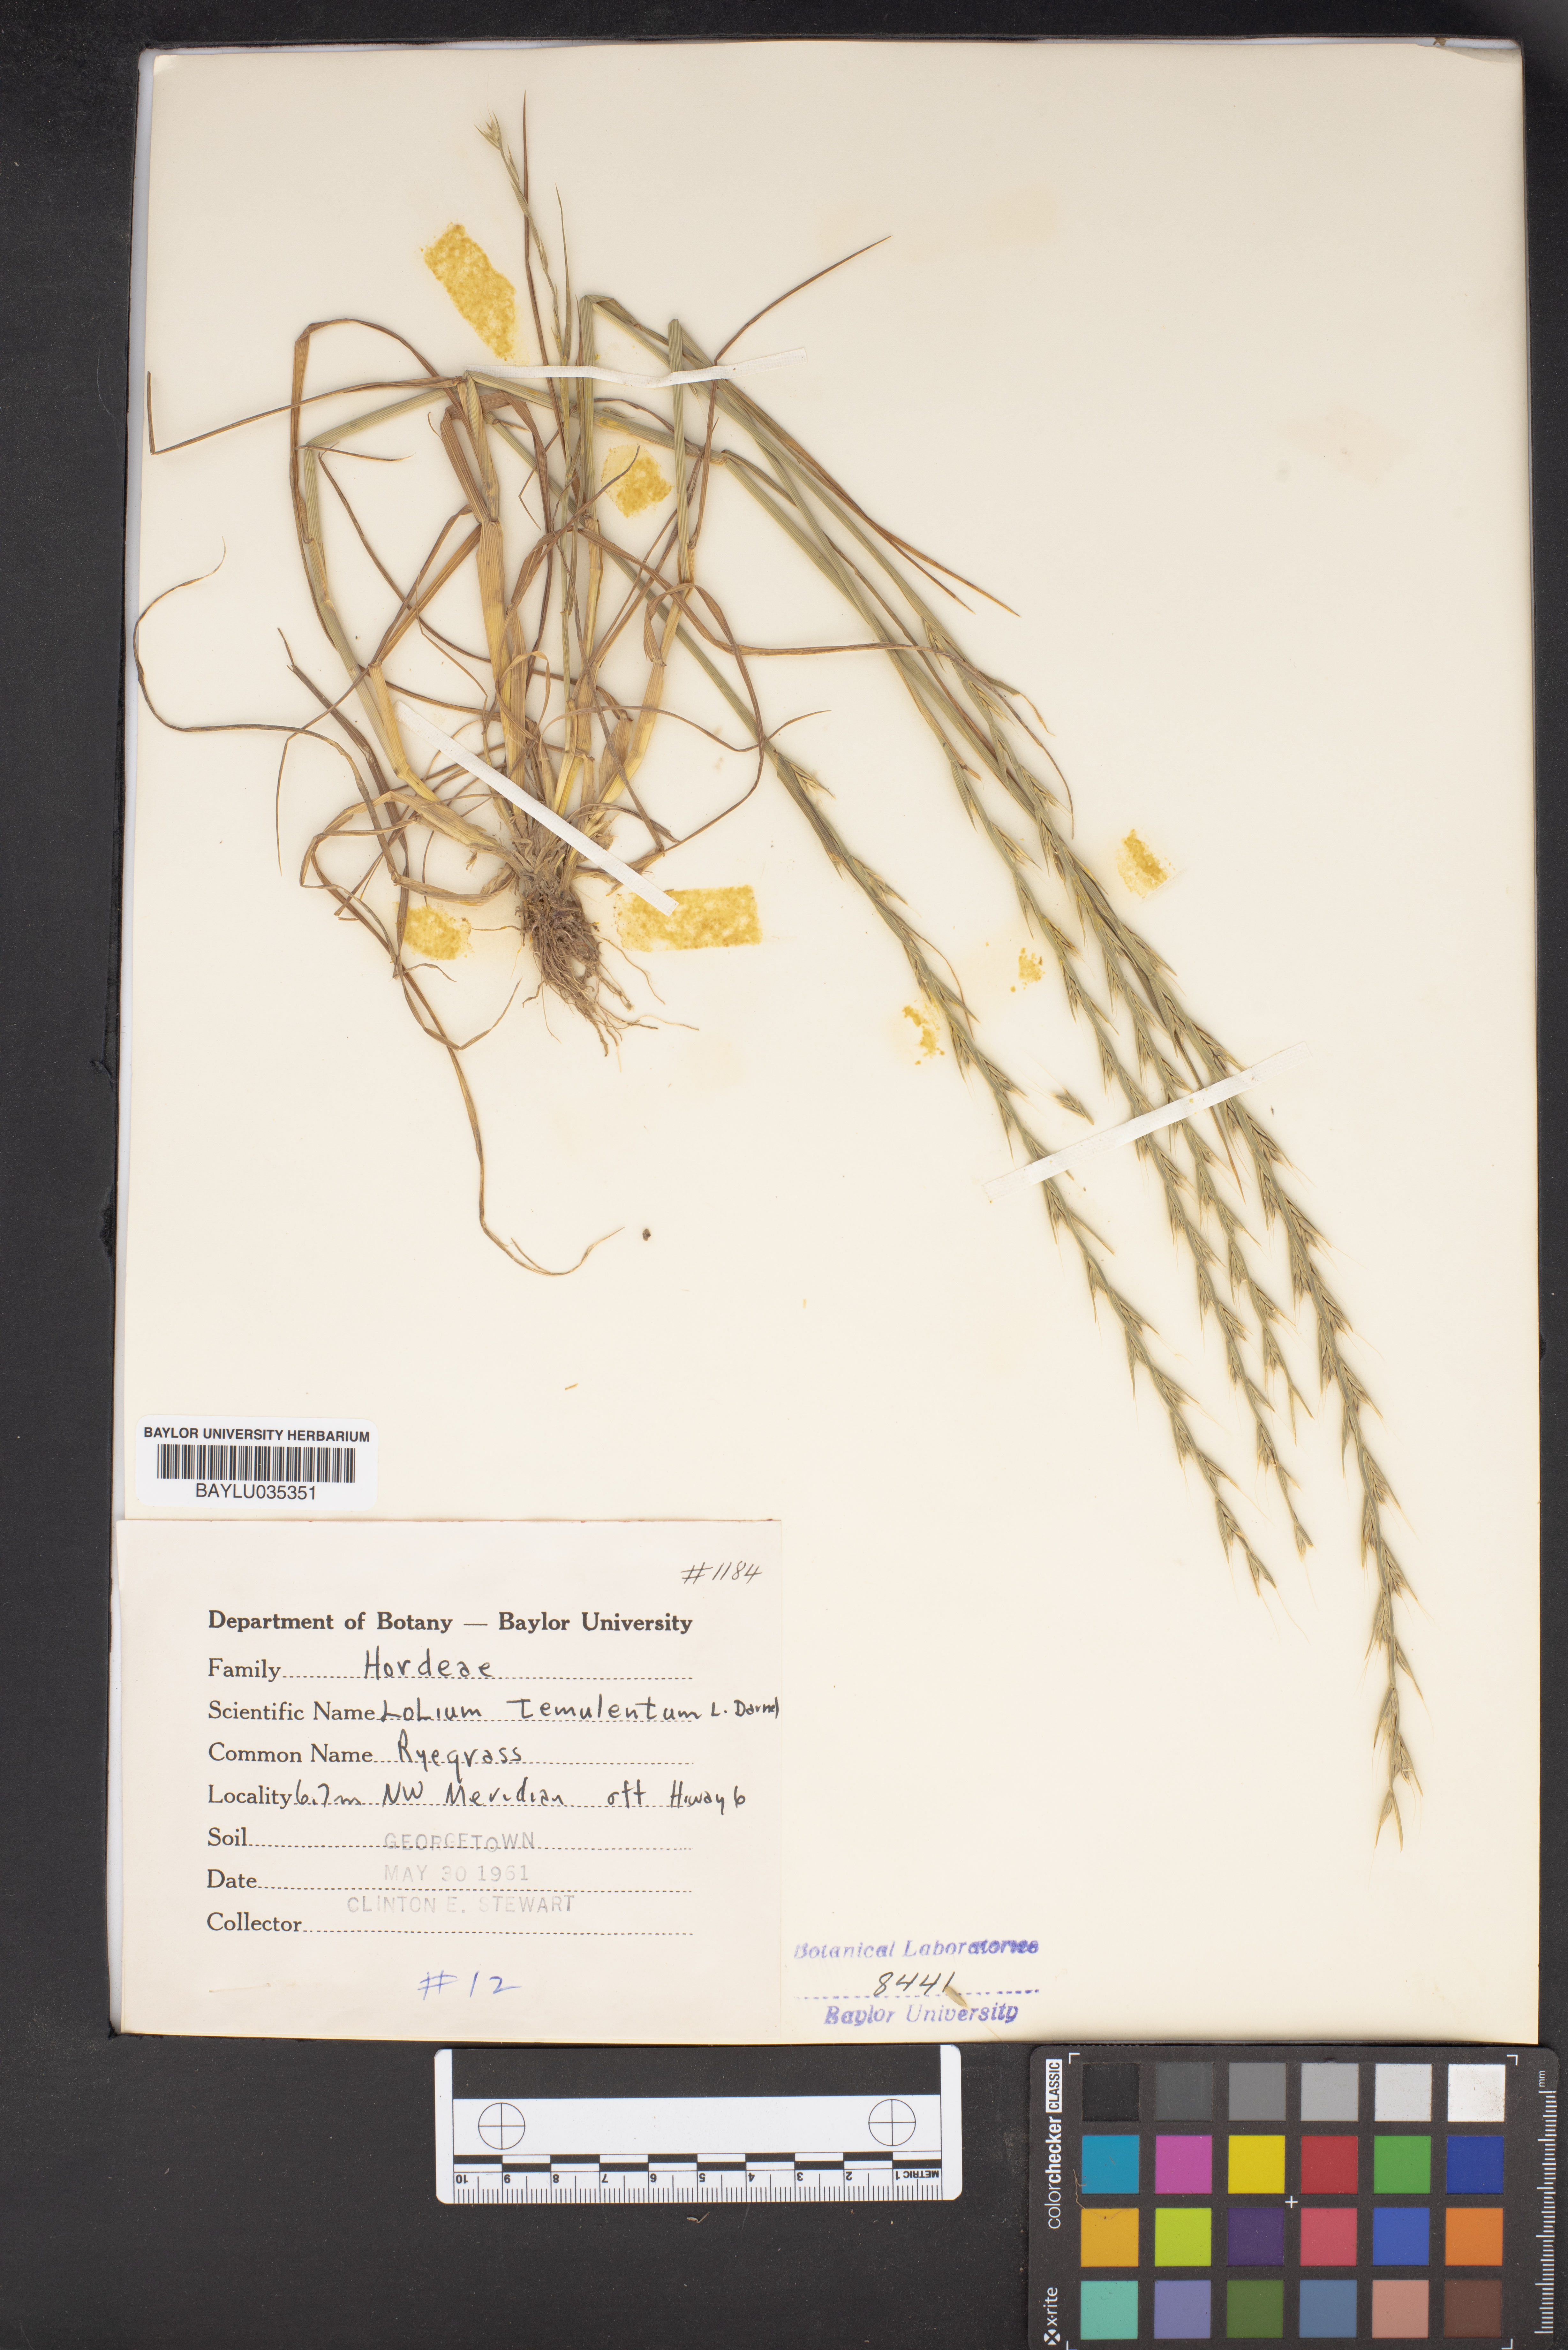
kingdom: Plantae
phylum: Tracheophyta
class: Liliopsida
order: Poales
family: Poaceae
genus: Lolium
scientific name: Lolium temulentum
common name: Darnel
